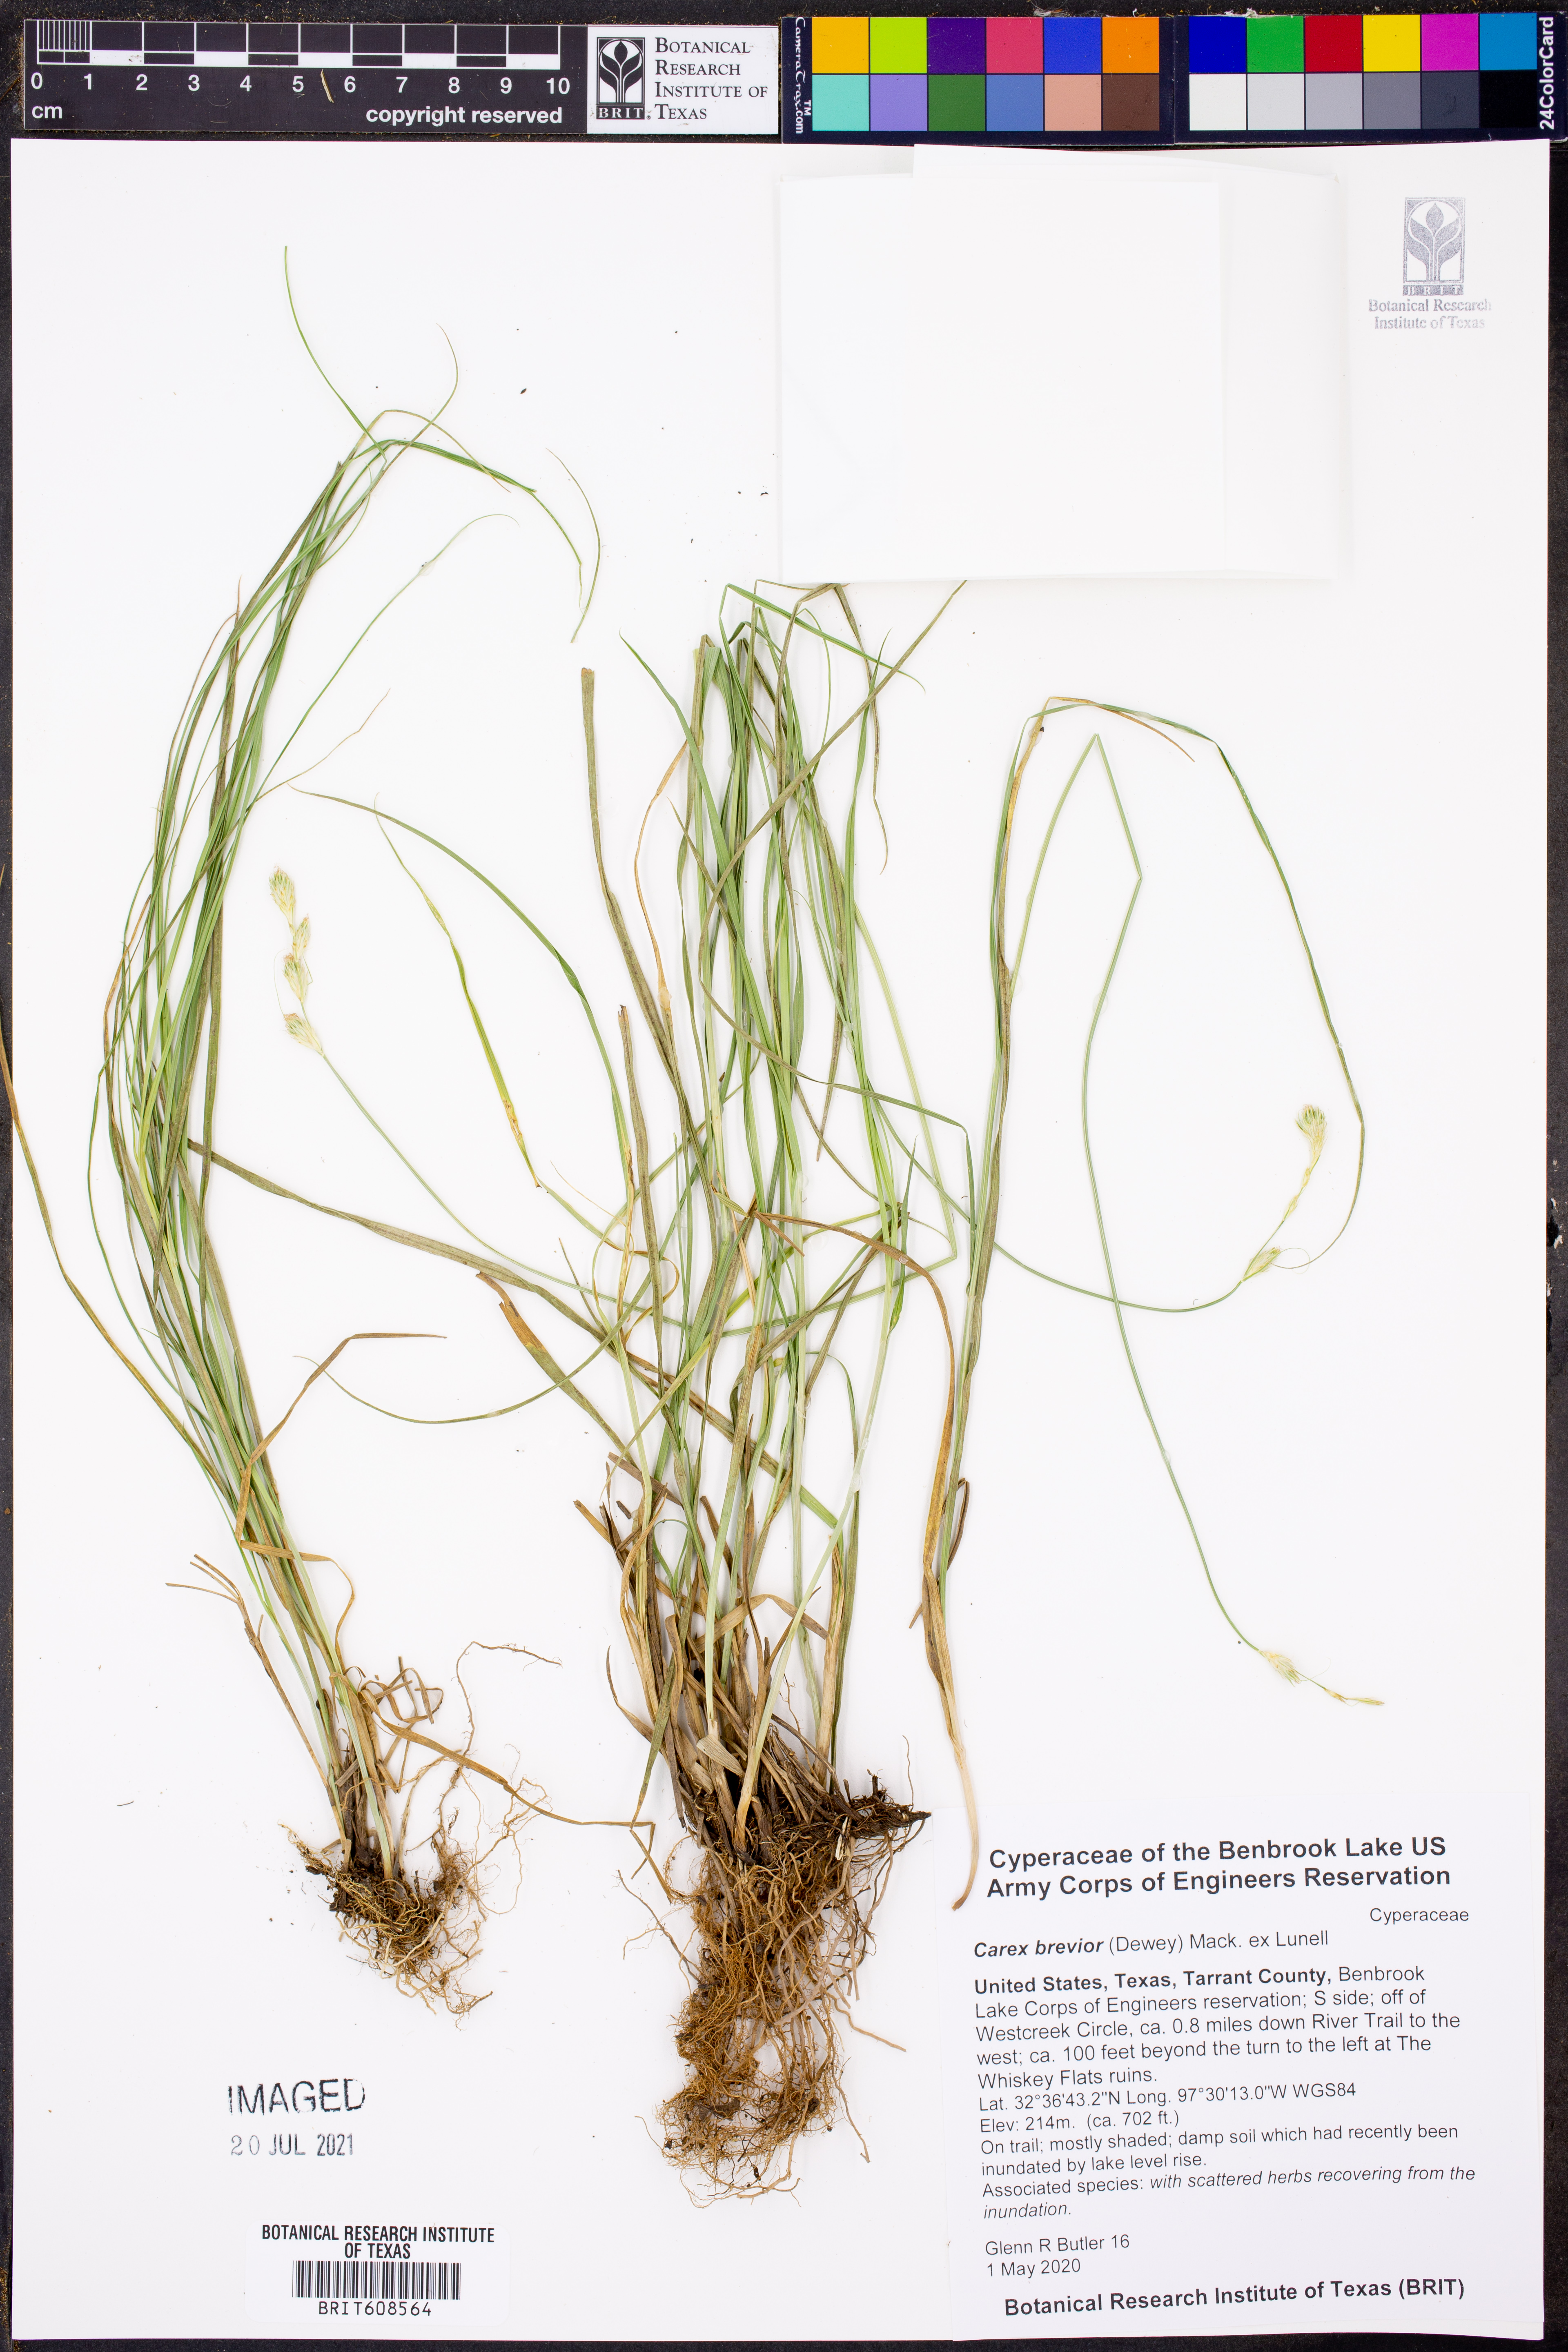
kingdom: Plantae
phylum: Tracheophyta
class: Liliopsida
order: Poales
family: Cyperaceae
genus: Carex
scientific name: Carex brevior
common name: Brevior sedge
